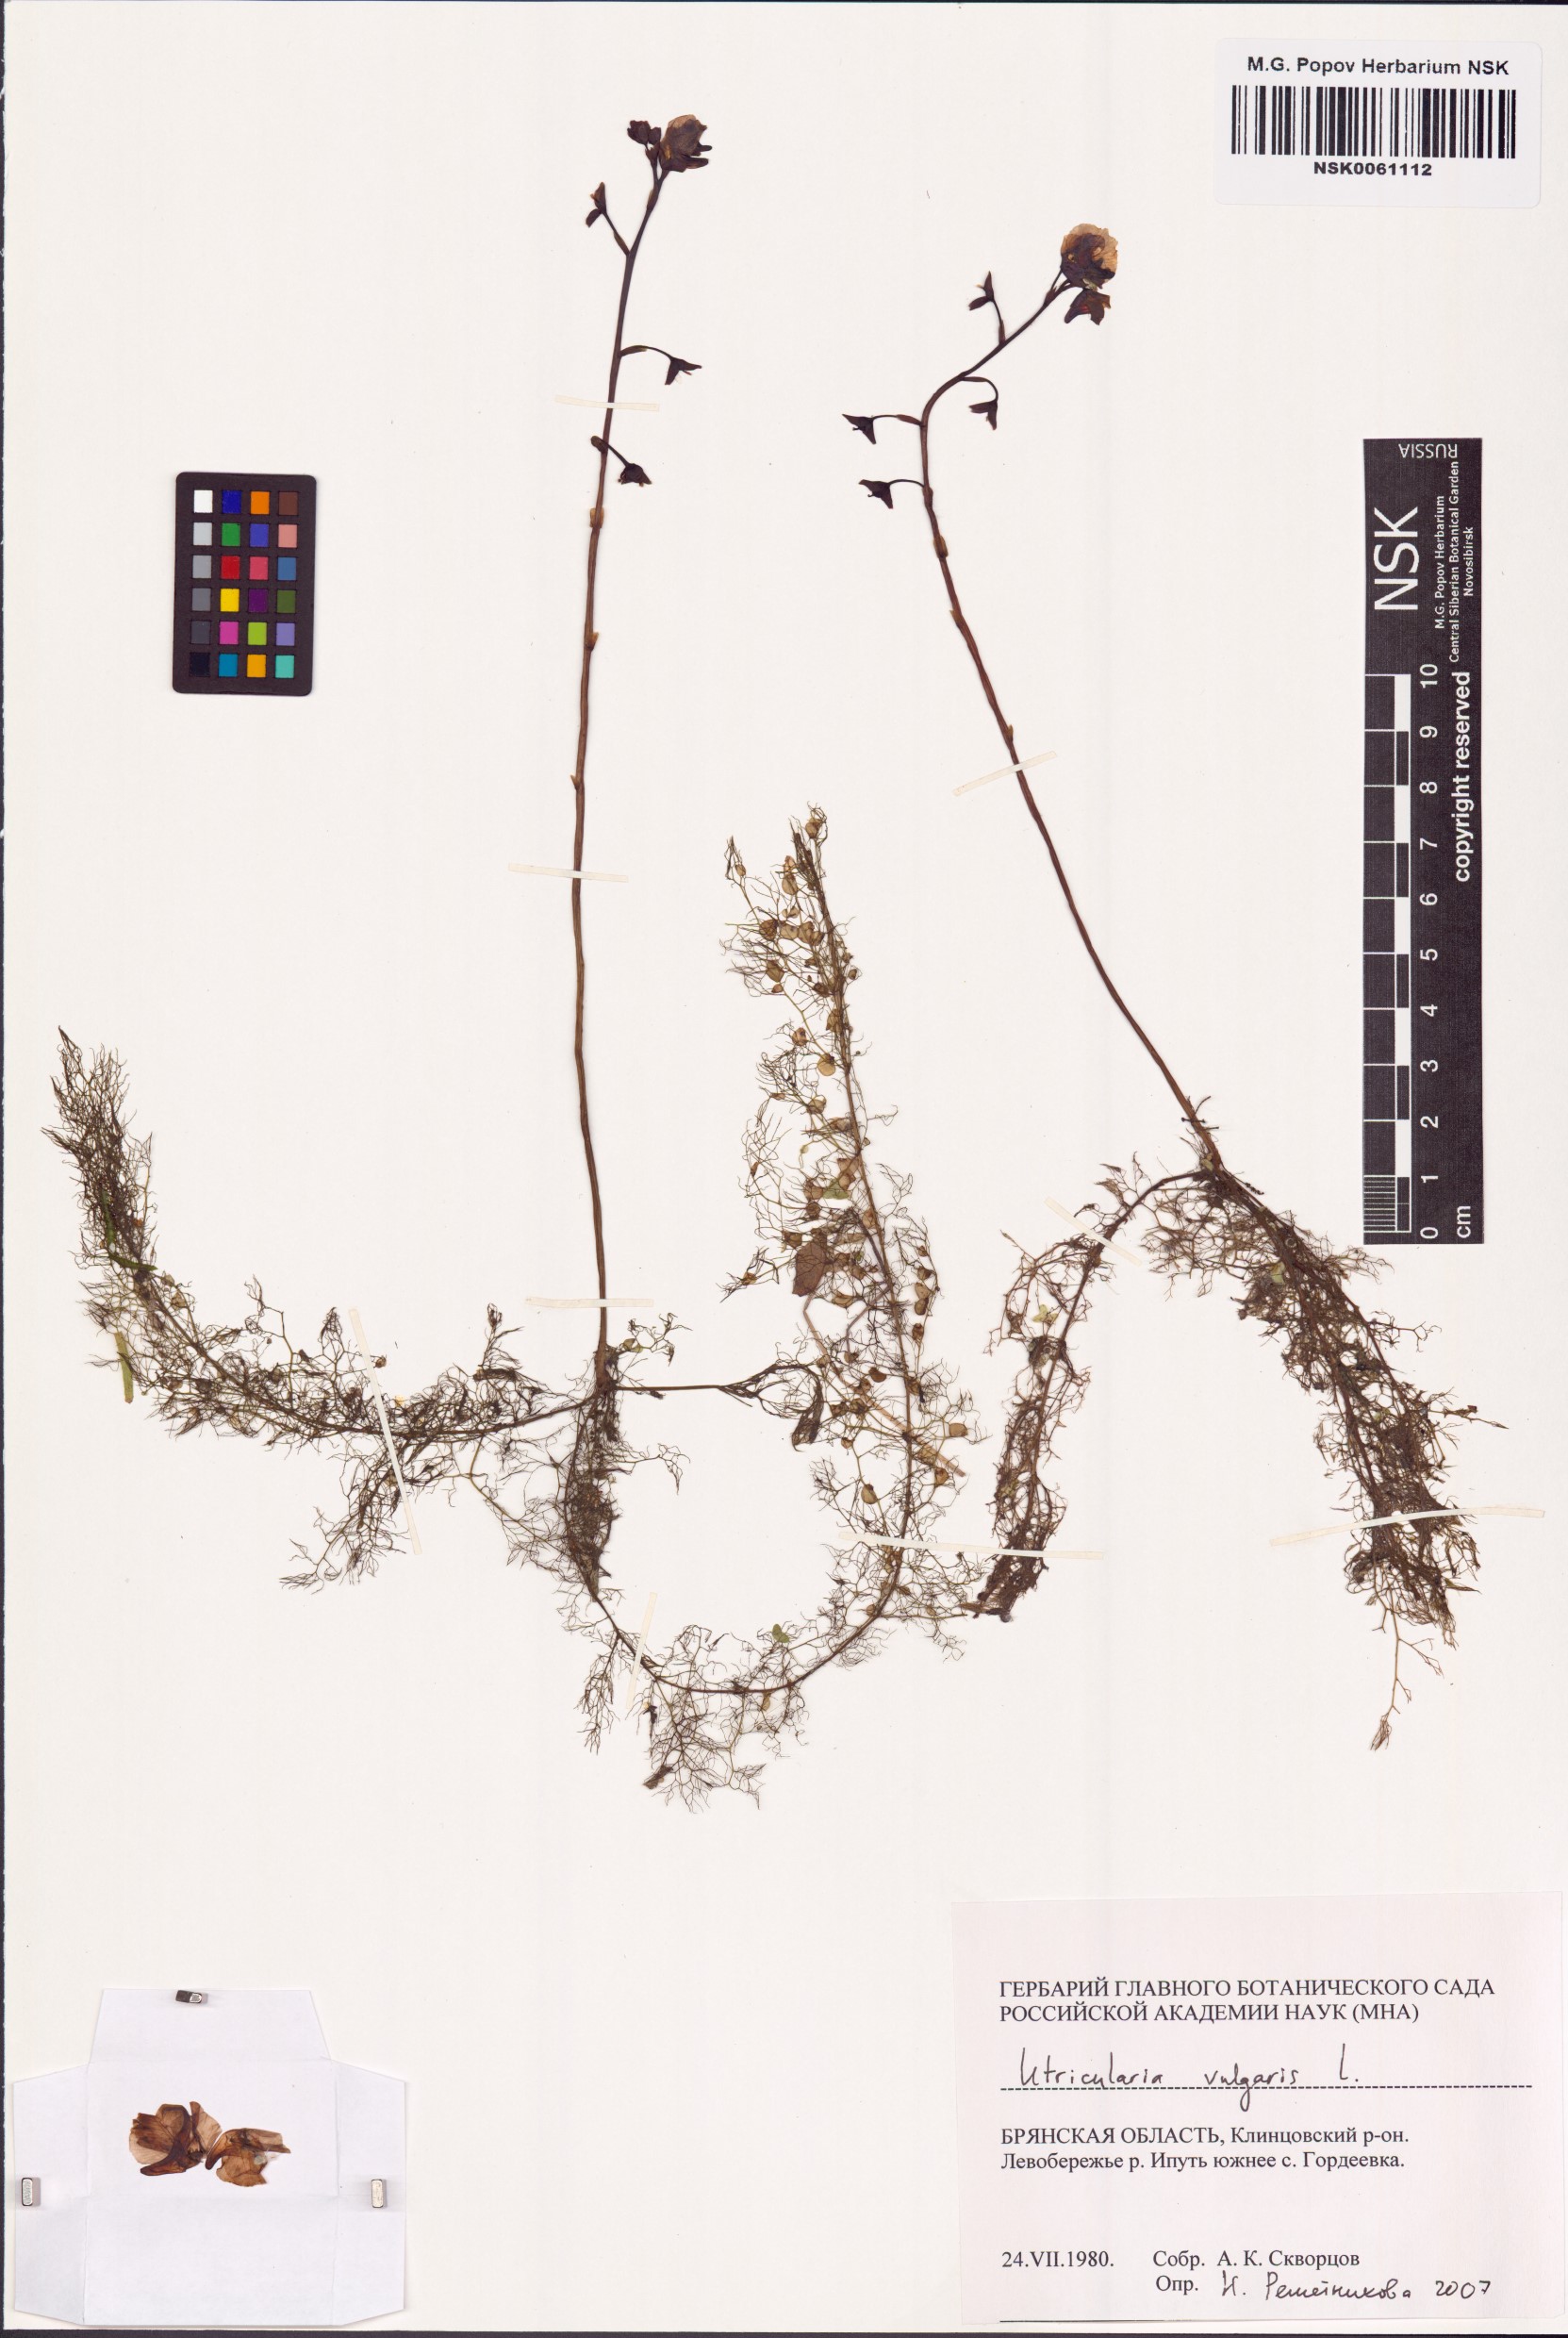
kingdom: Plantae
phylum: Tracheophyta
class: Magnoliopsida
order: Lamiales
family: Lentibulariaceae
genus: Utricularia
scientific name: Utricularia vulgaris
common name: Greater bladderwort
